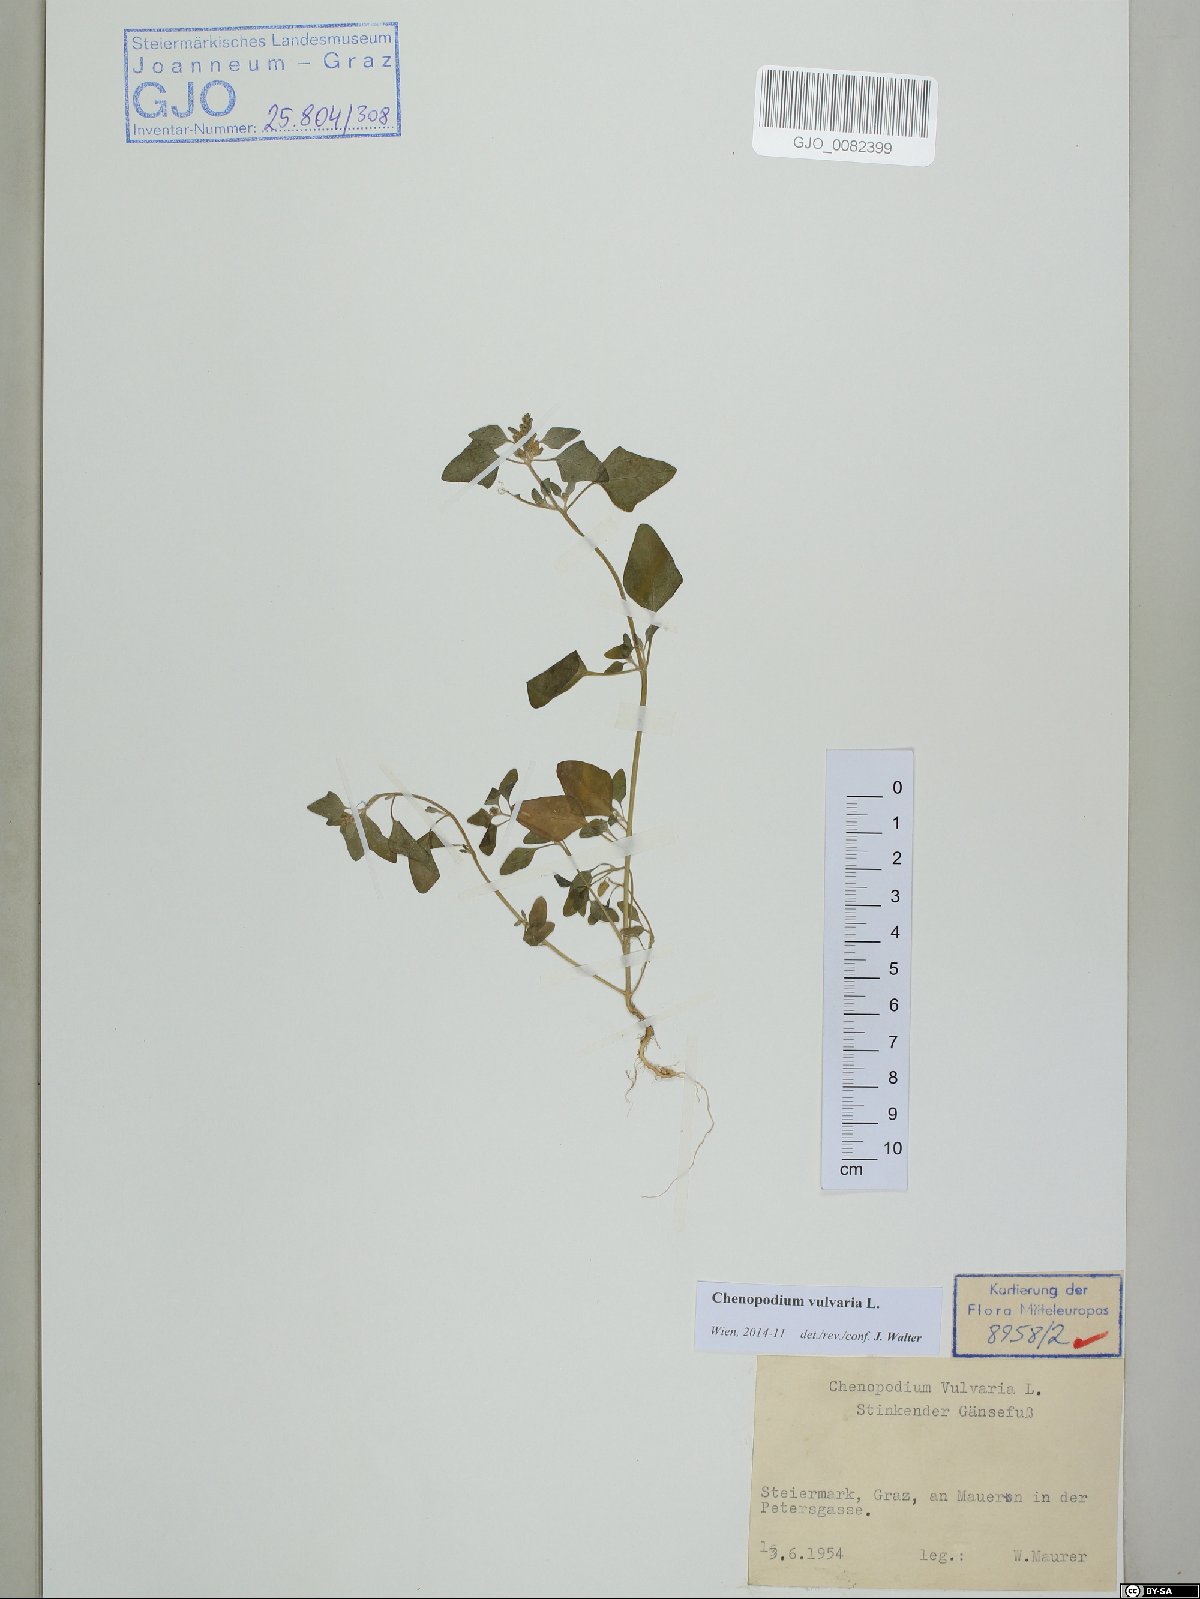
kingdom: Plantae
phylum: Tracheophyta
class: Magnoliopsida
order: Caryophyllales
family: Amaranthaceae
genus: Chenopodium
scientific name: Chenopodium vulvaria
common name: Stinking goosefoot
